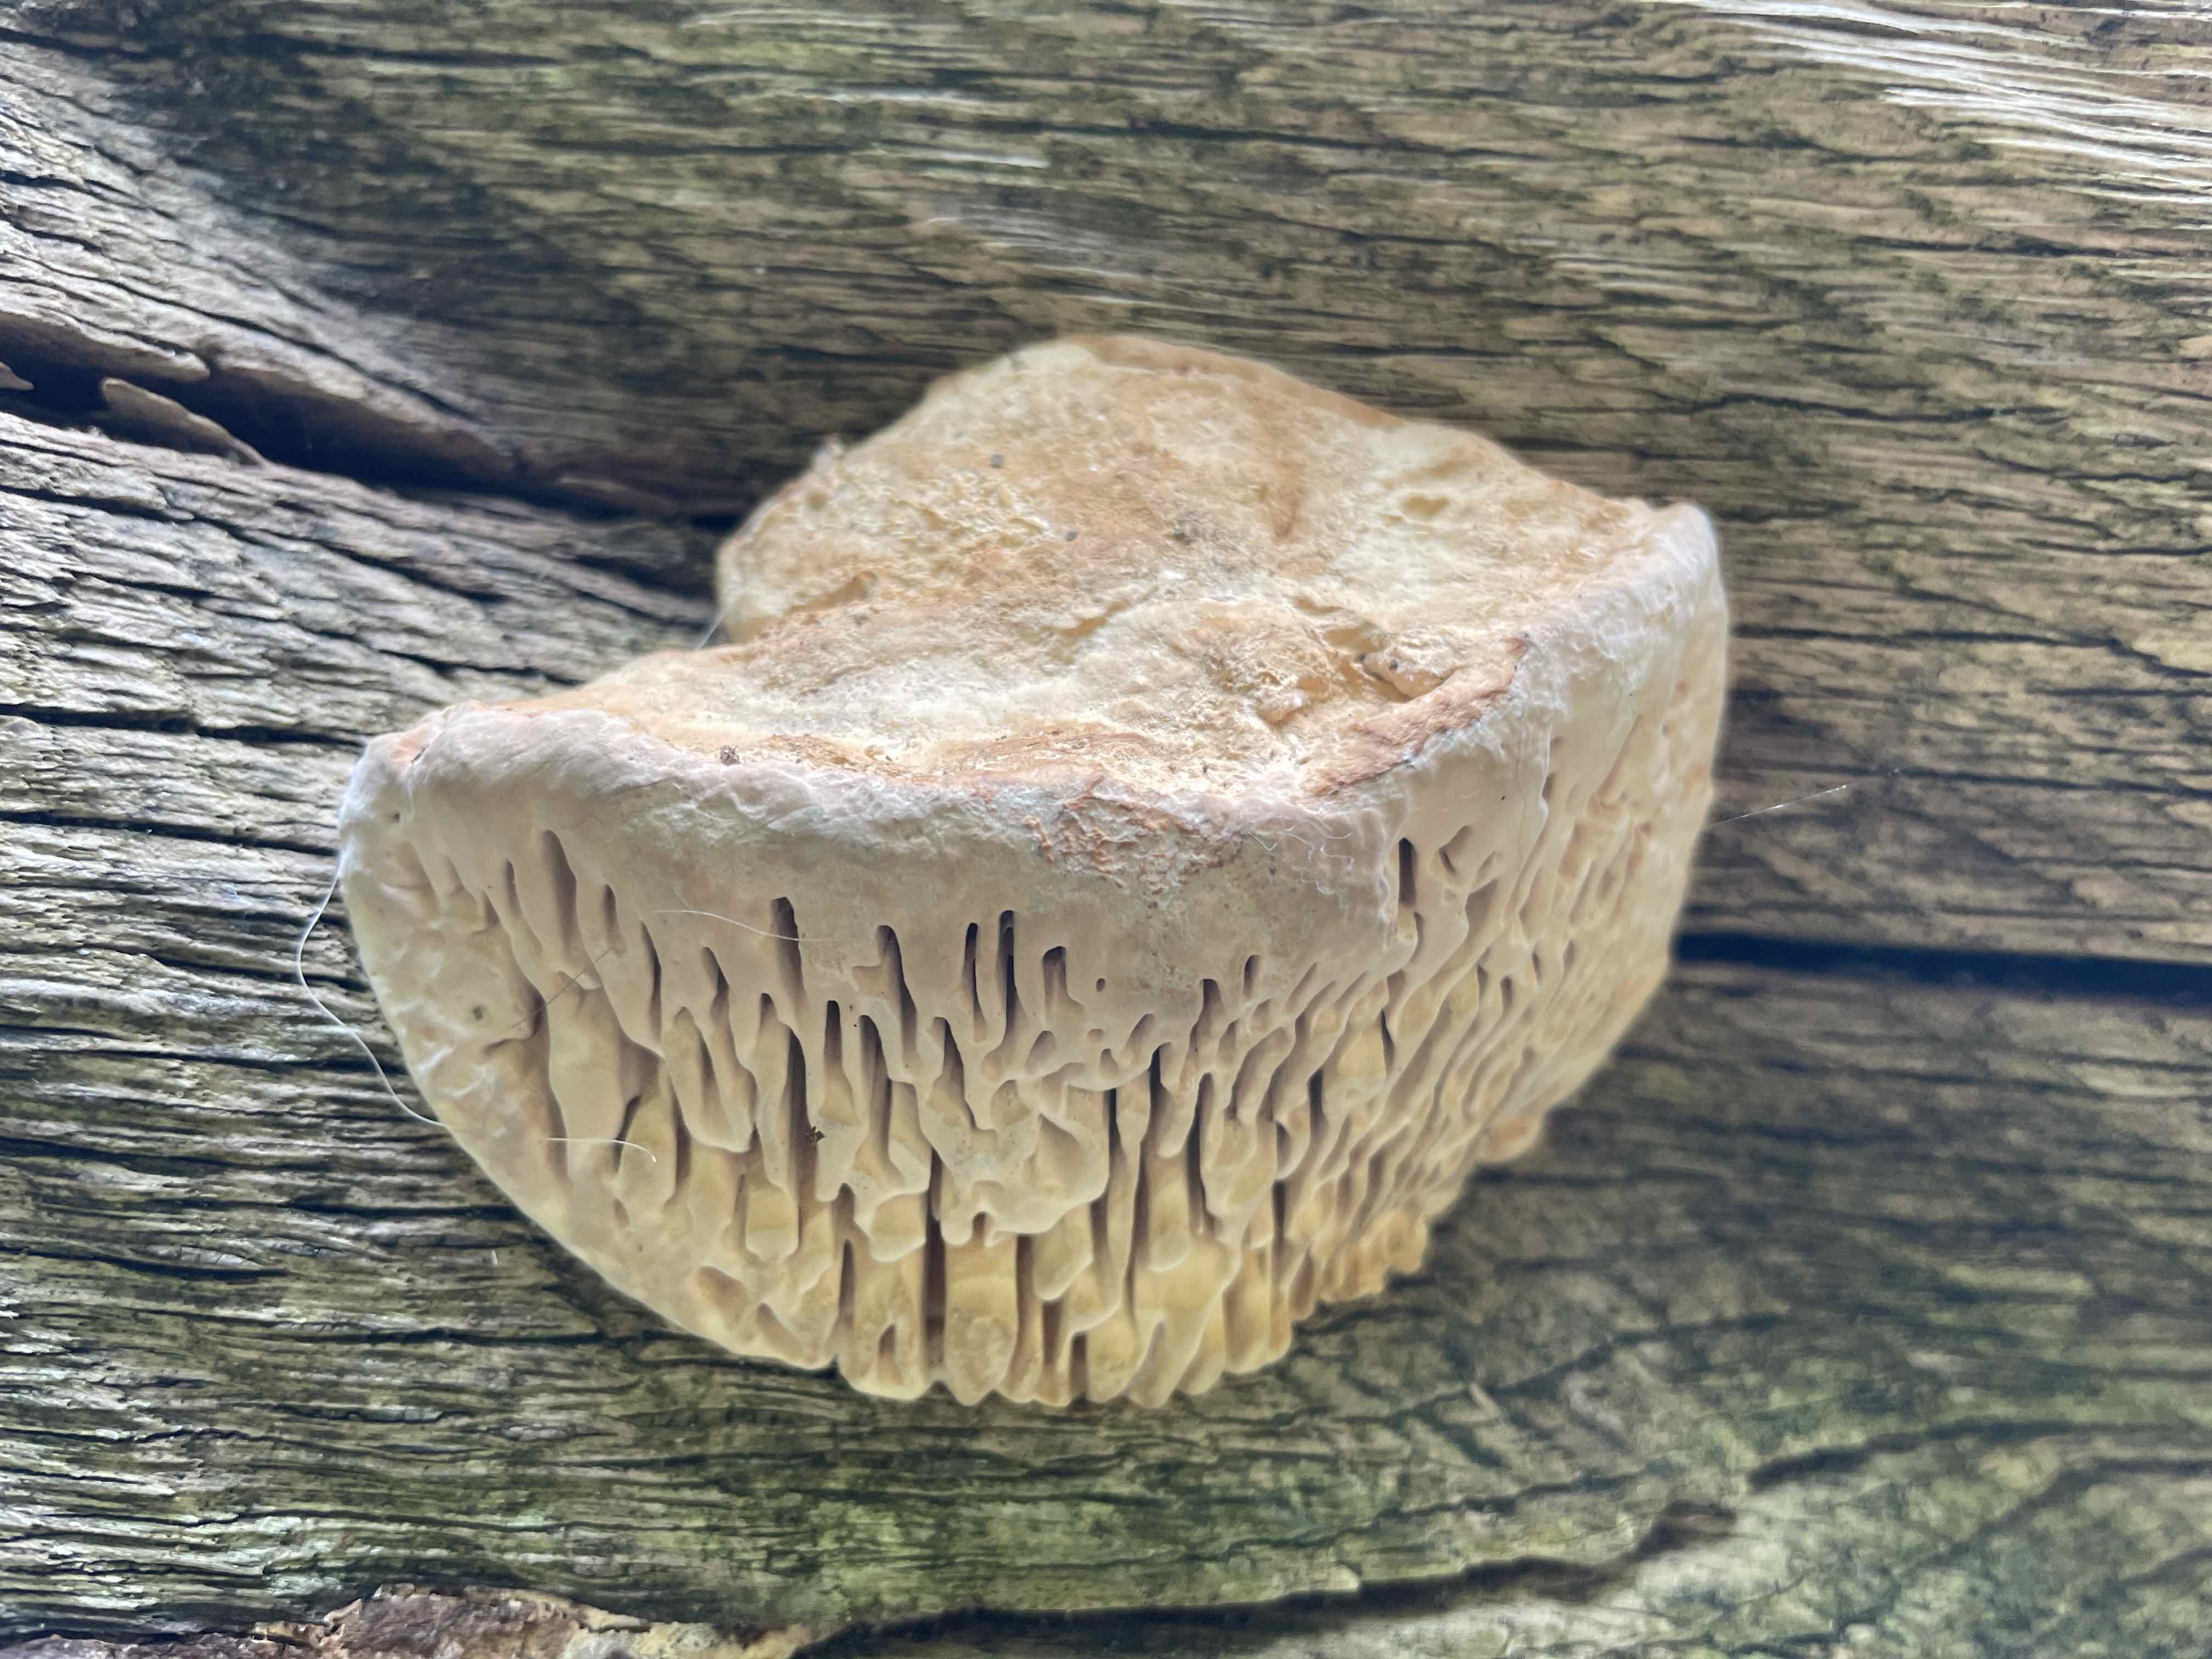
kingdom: Fungi
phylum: Basidiomycota
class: Agaricomycetes
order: Polyporales
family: Fomitopsidaceae
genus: Daedalea
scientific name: Daedalea quercina
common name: ege-labyrintsvamp
